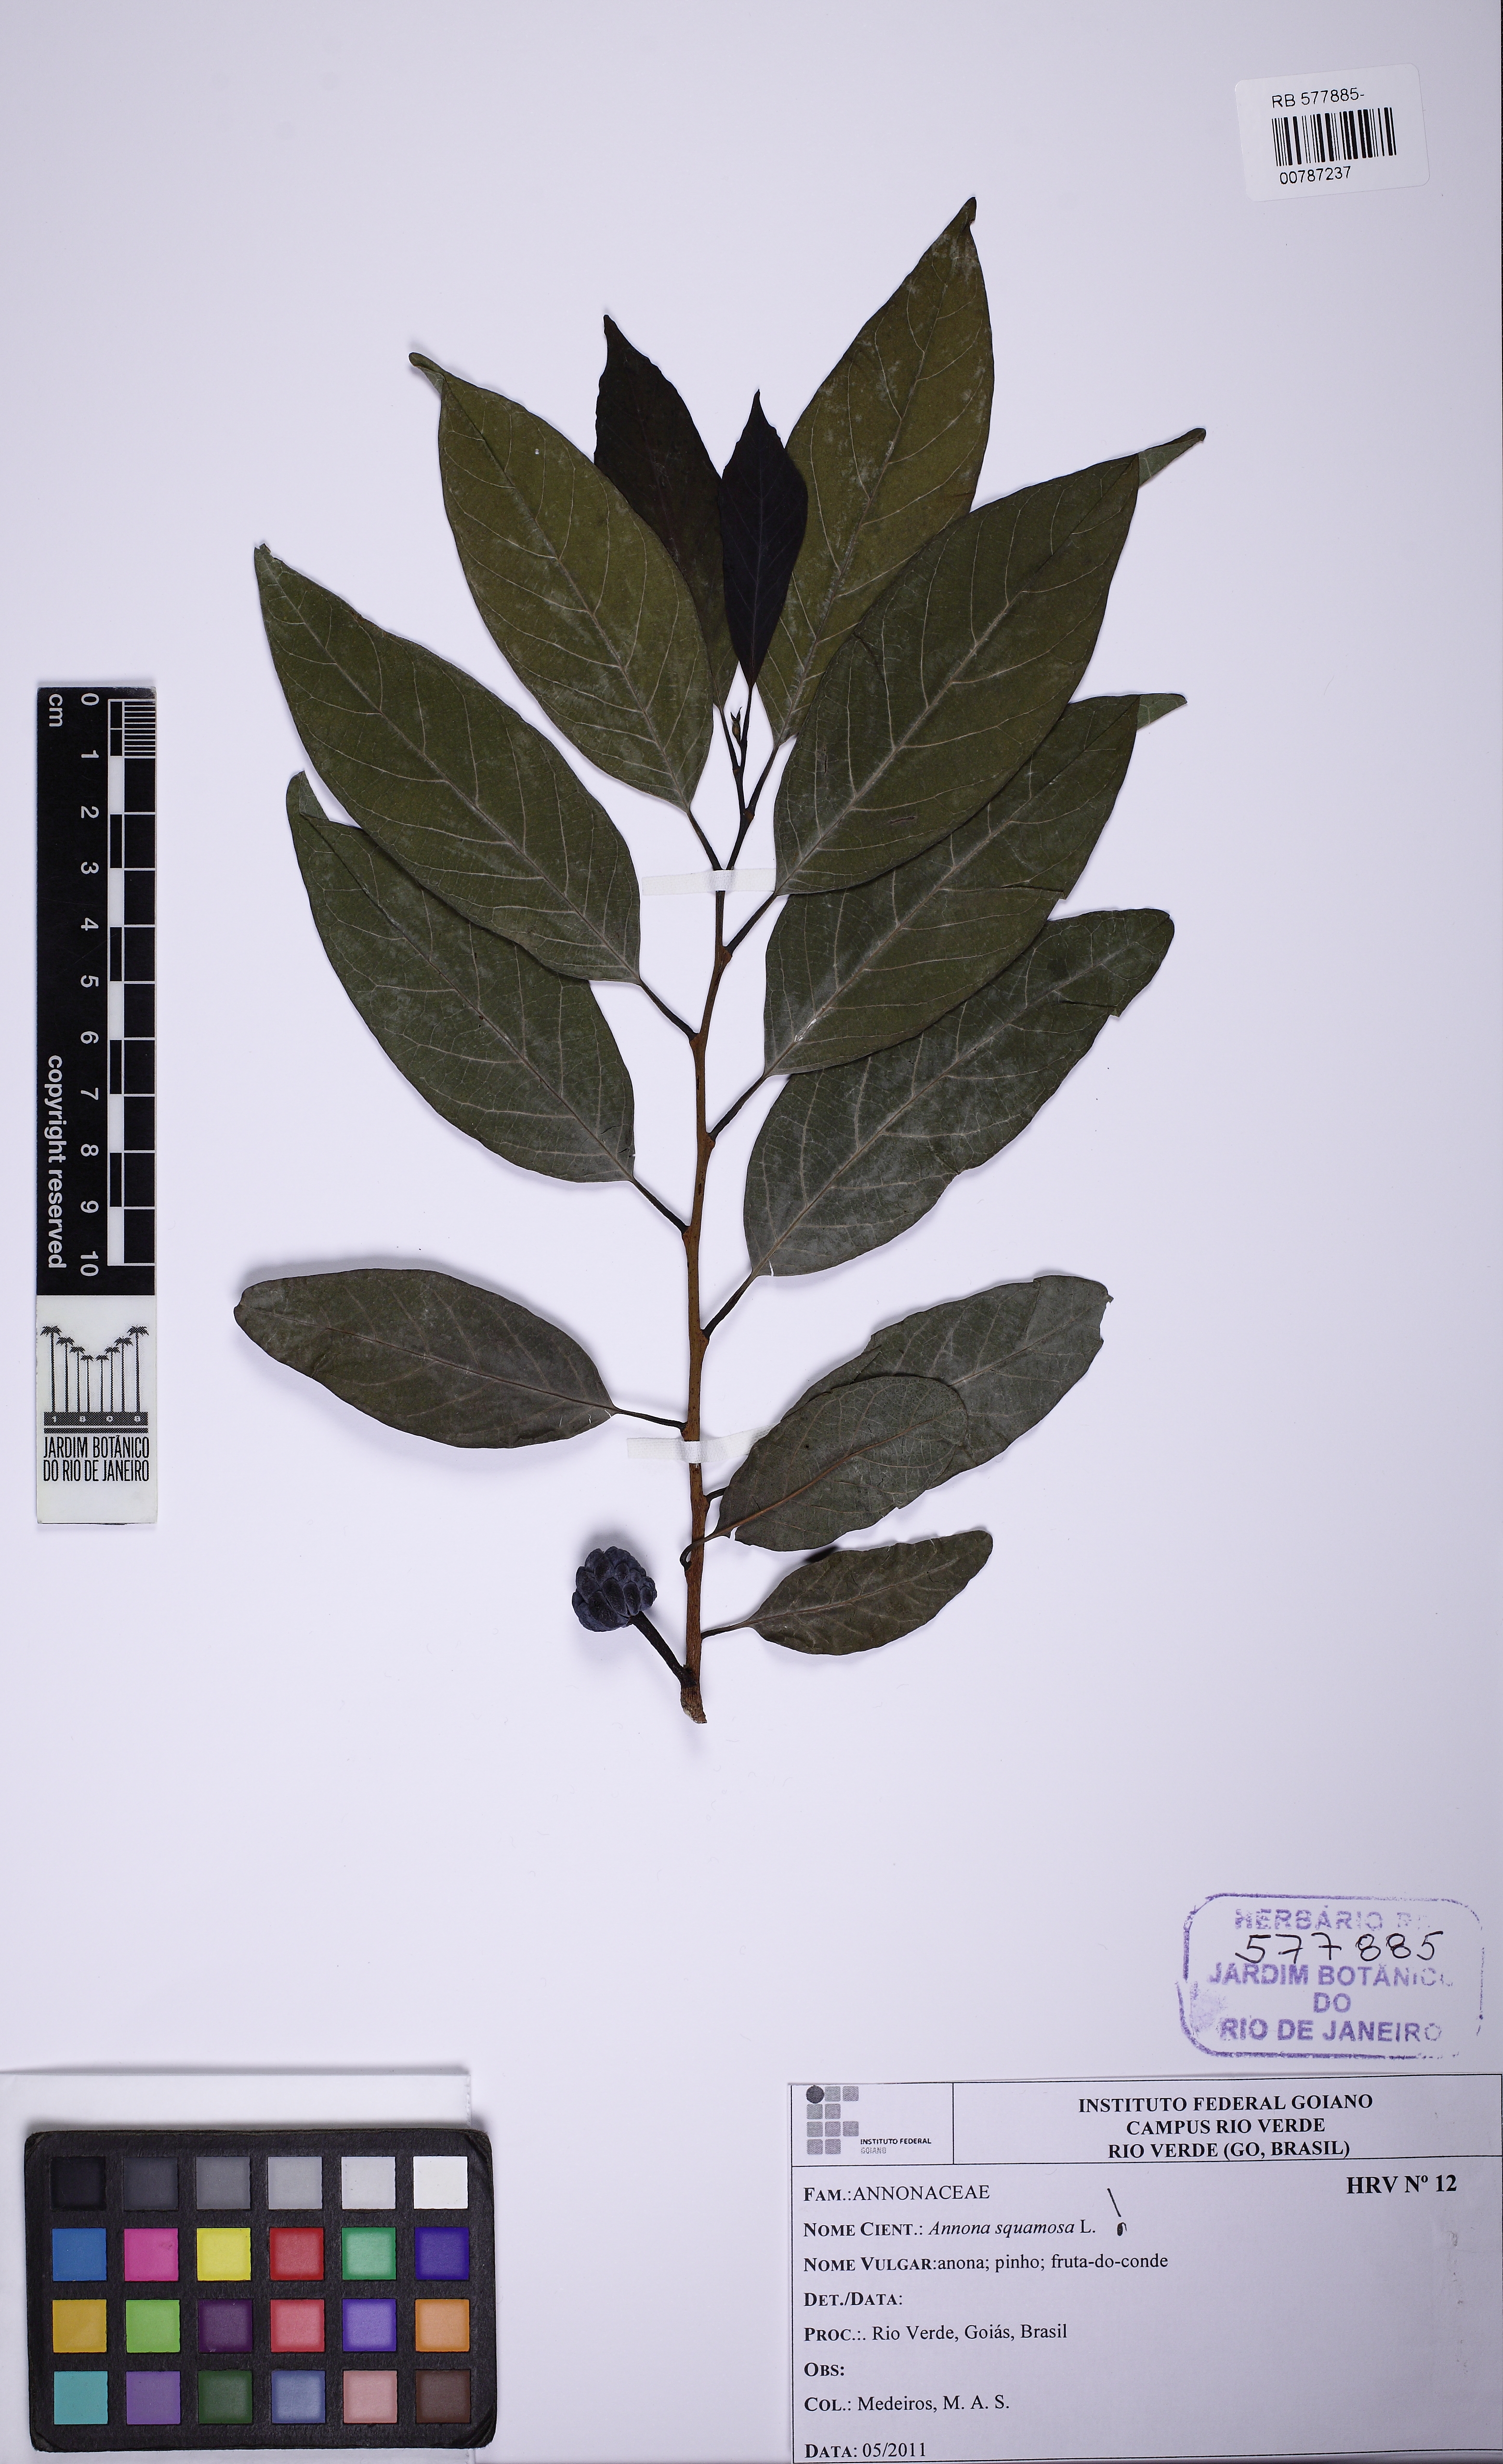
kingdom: Plantae
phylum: Tracheophyta
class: Magnoliopsida
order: Magnoliales
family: Annonaceae
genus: Annona
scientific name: Annona squamosa
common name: Custard-apple
